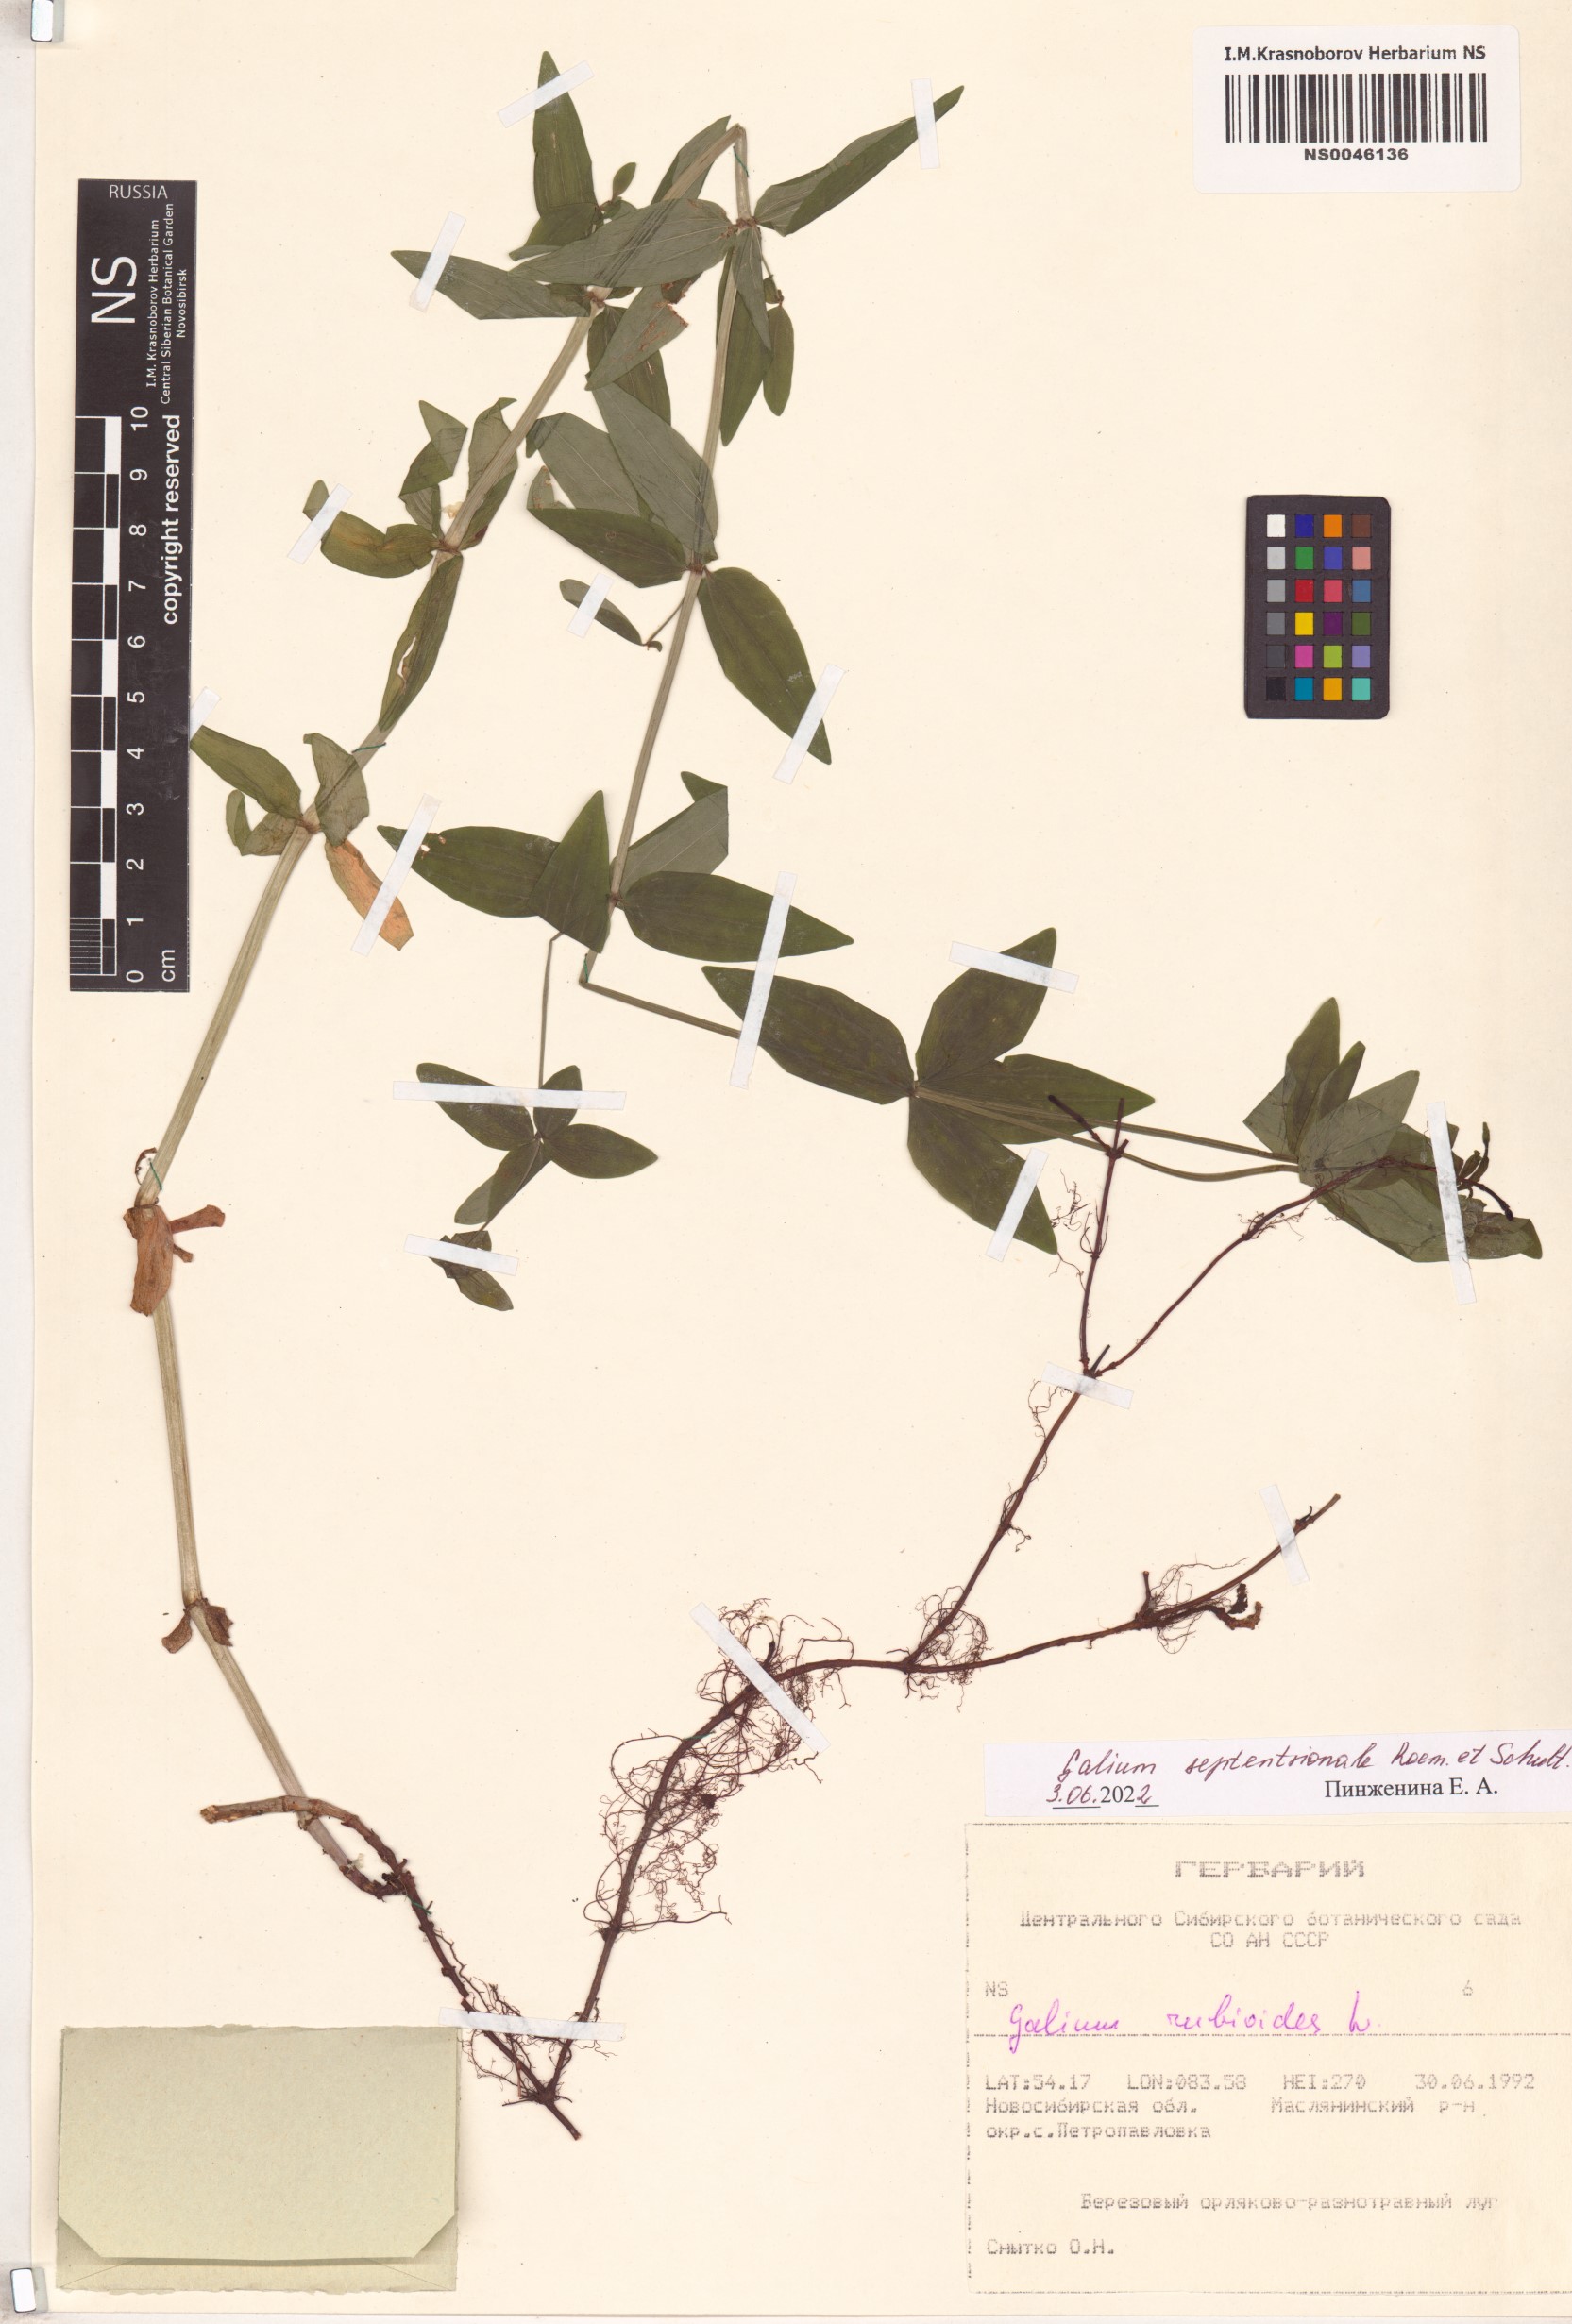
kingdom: Plantae
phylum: Tracheophyta
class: Magnoliopsida
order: Gentianales
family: Rubiaceae
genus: Galium
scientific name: Galium boreale
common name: Northern bedstraw
